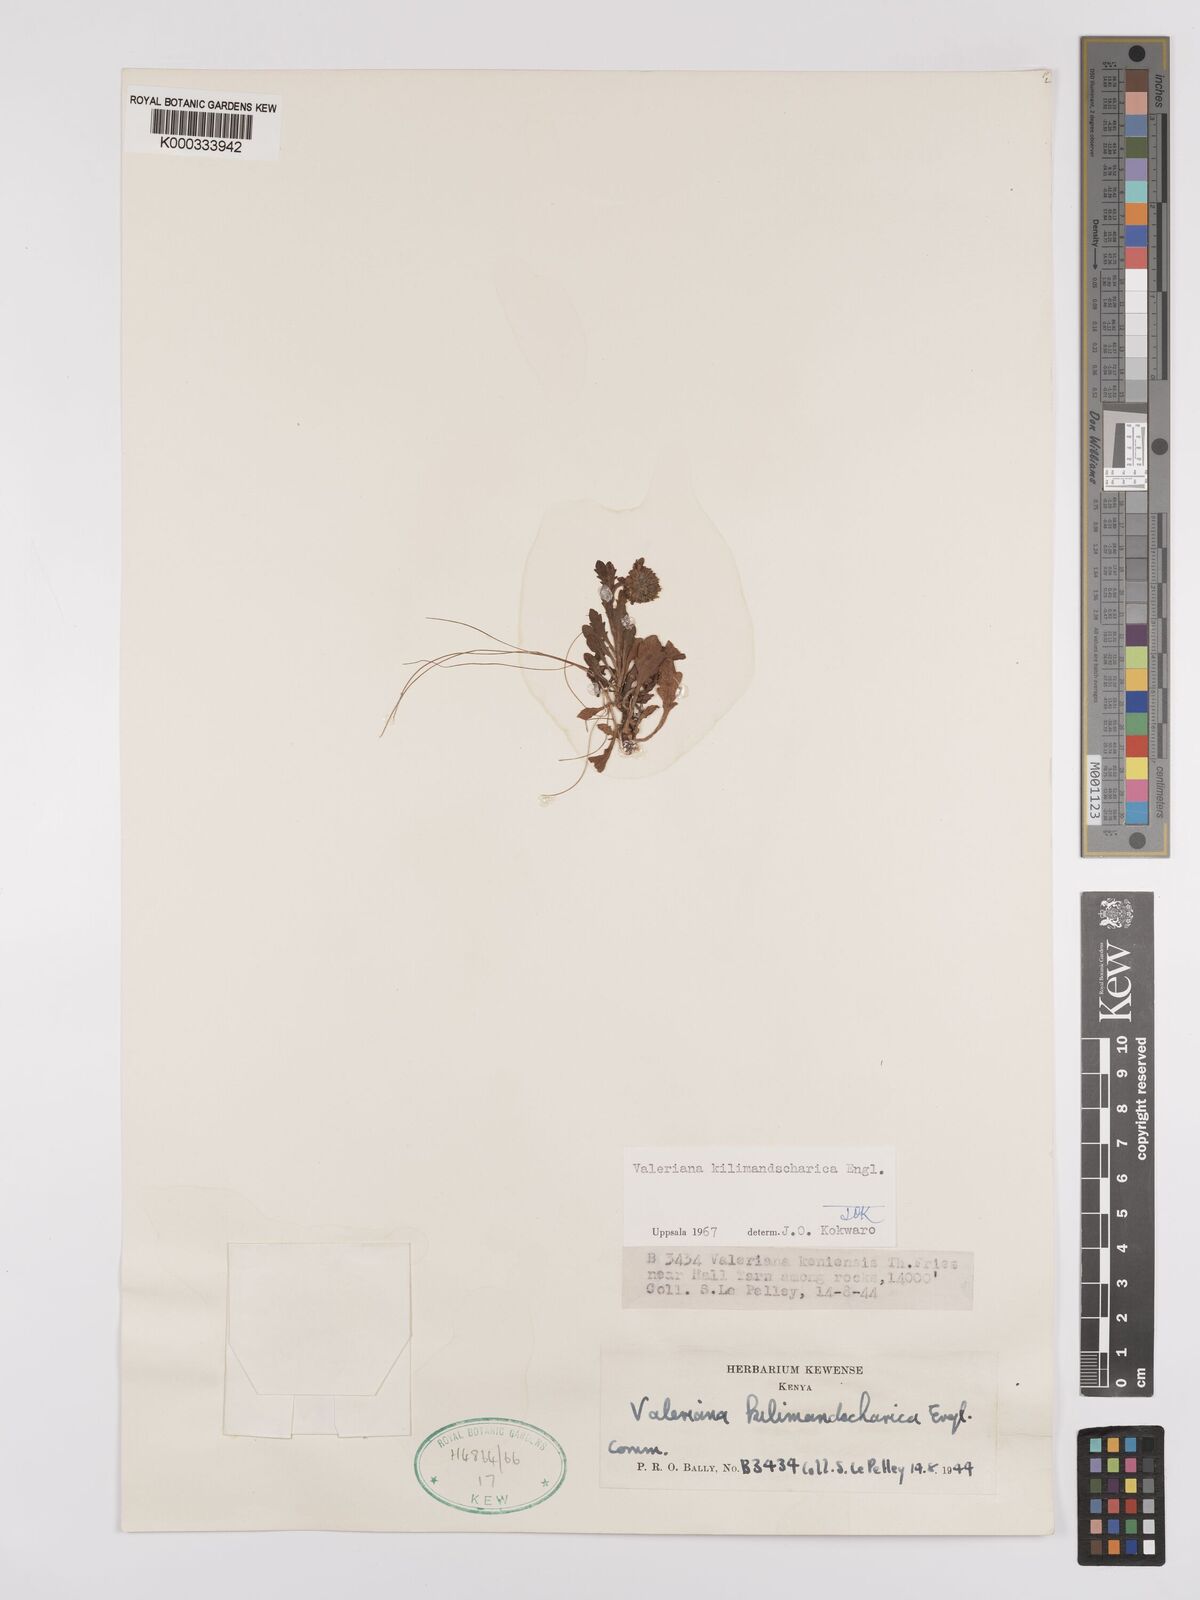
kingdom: Plantae
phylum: Tracheophyta
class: Magnoliopsida
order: Dipsacales
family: Caprifoliaceae
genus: Valeriana
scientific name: Valeriana kilimandscharica
